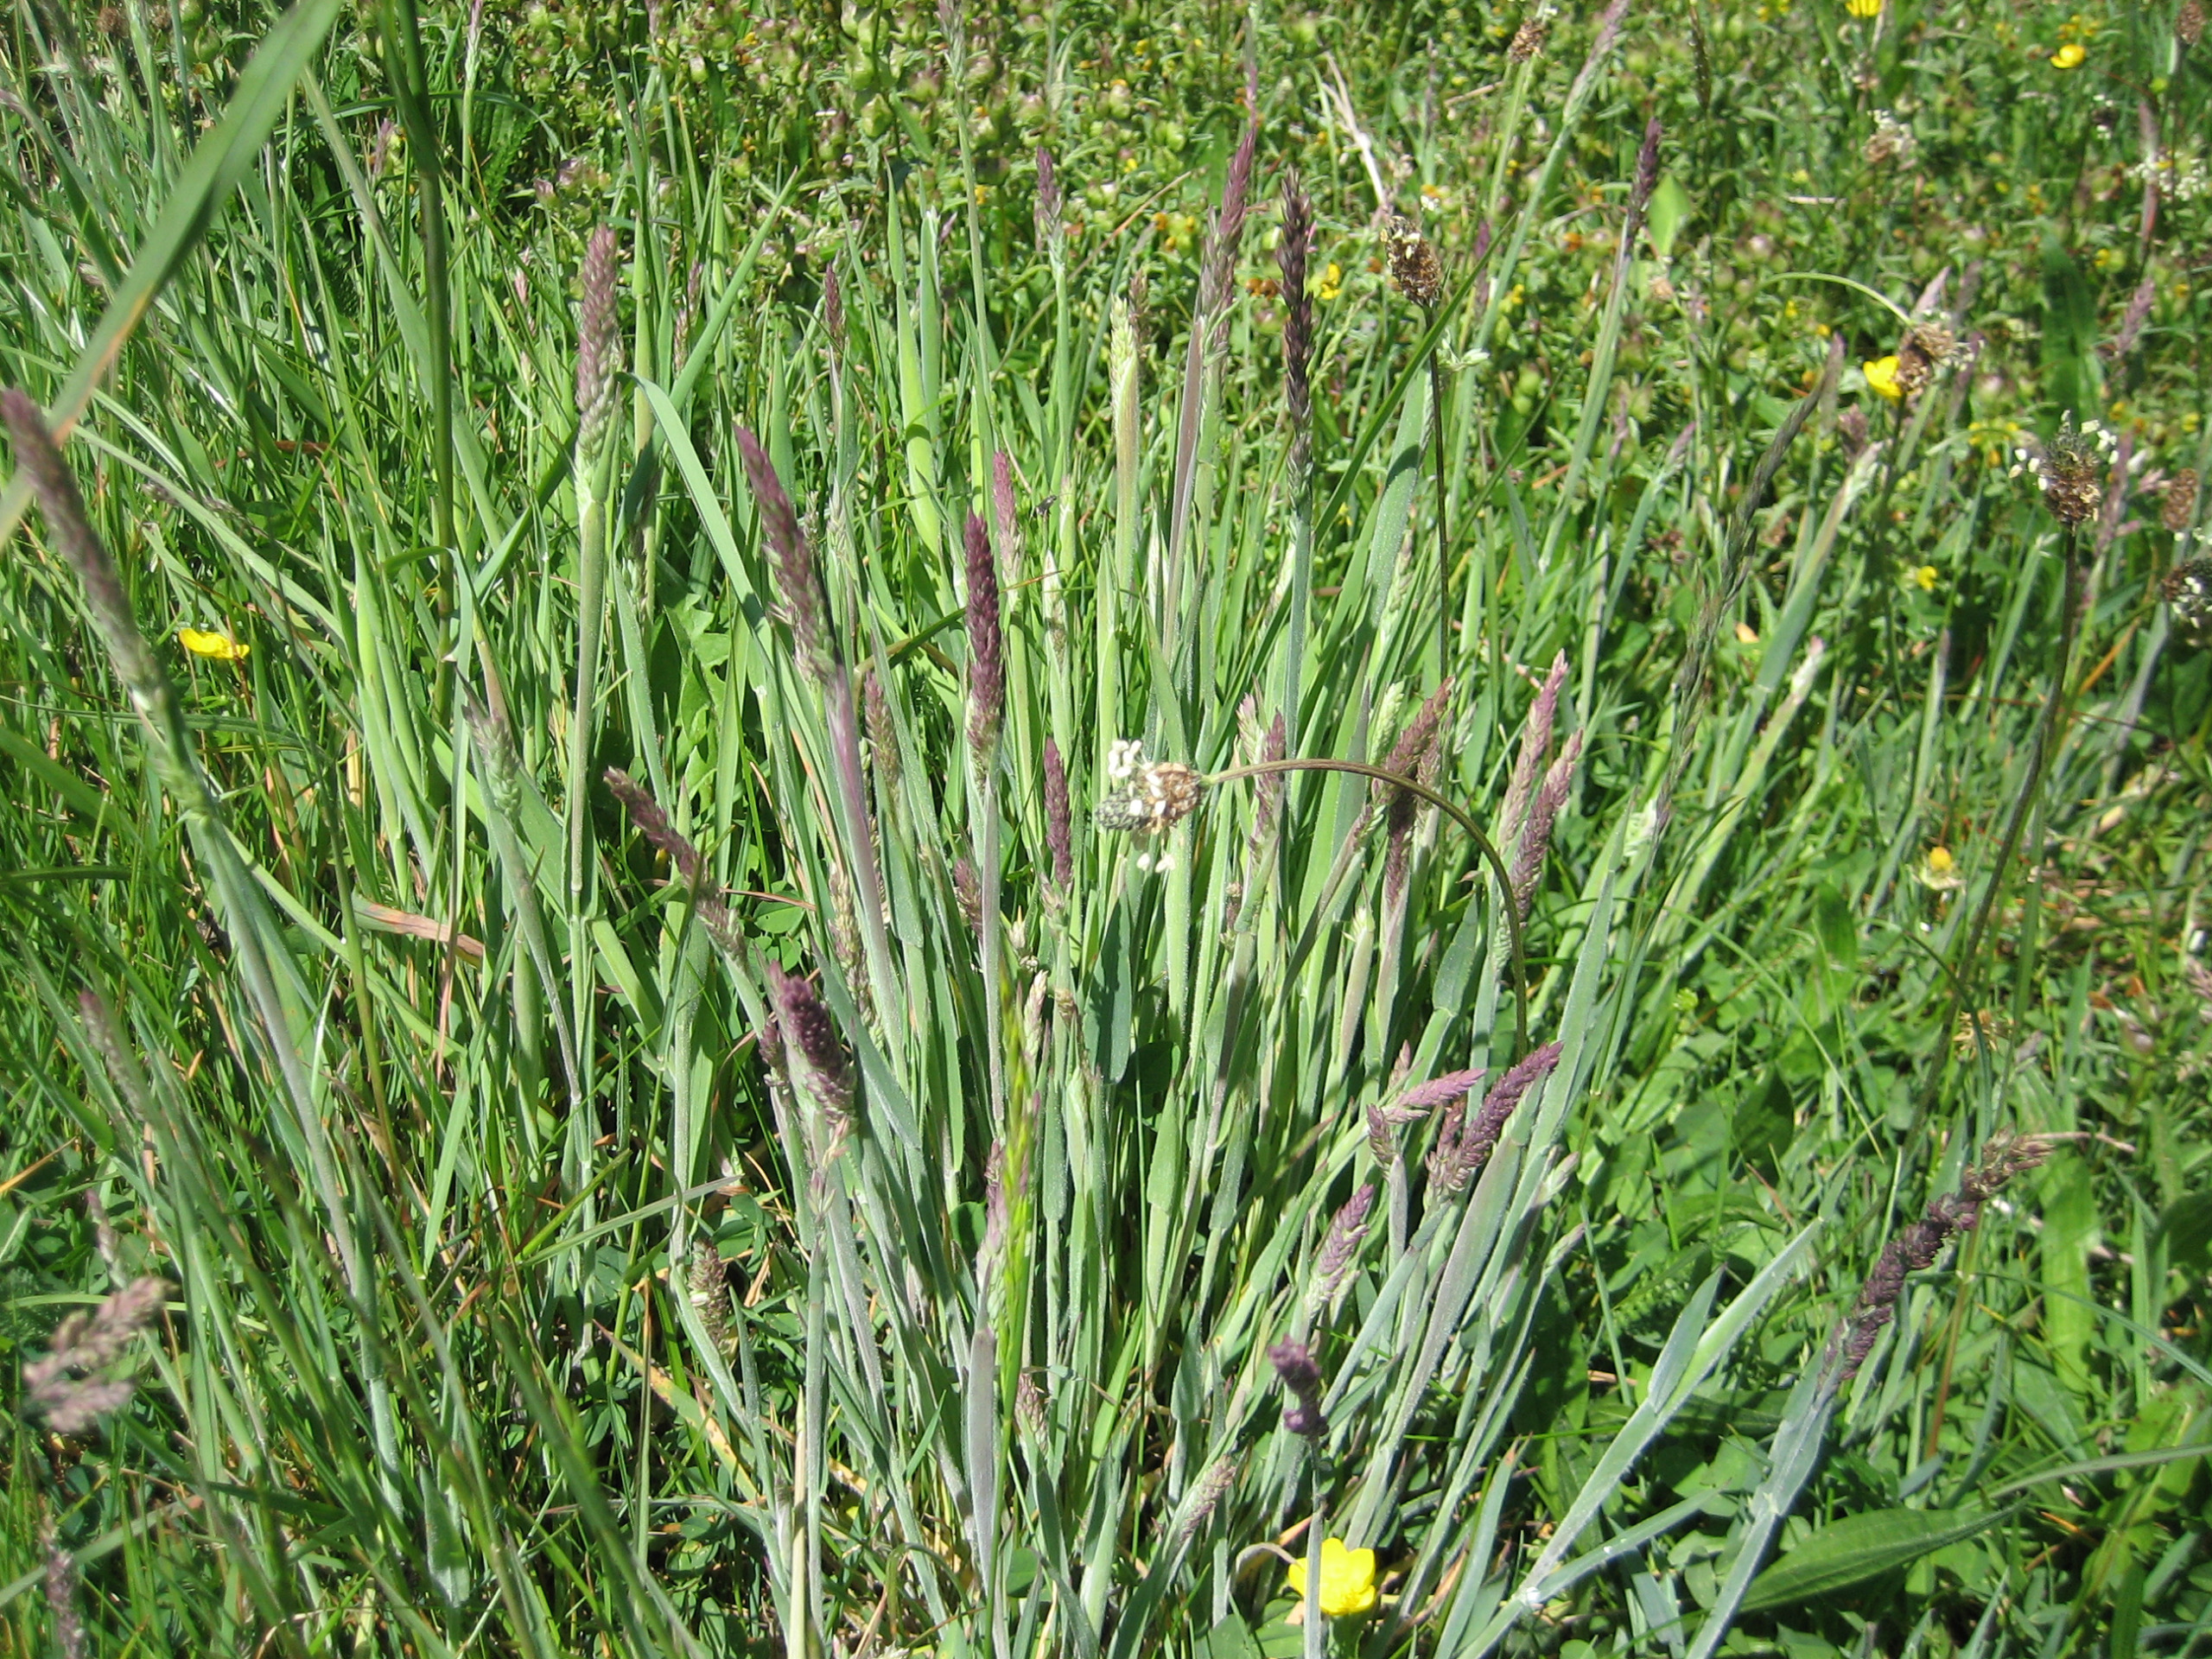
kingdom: Plantae
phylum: Tracheophyta
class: Liliopsida
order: Poales
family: Poaceae
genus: Holcus
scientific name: Holcus lanatus
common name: Fløjlsgræs
